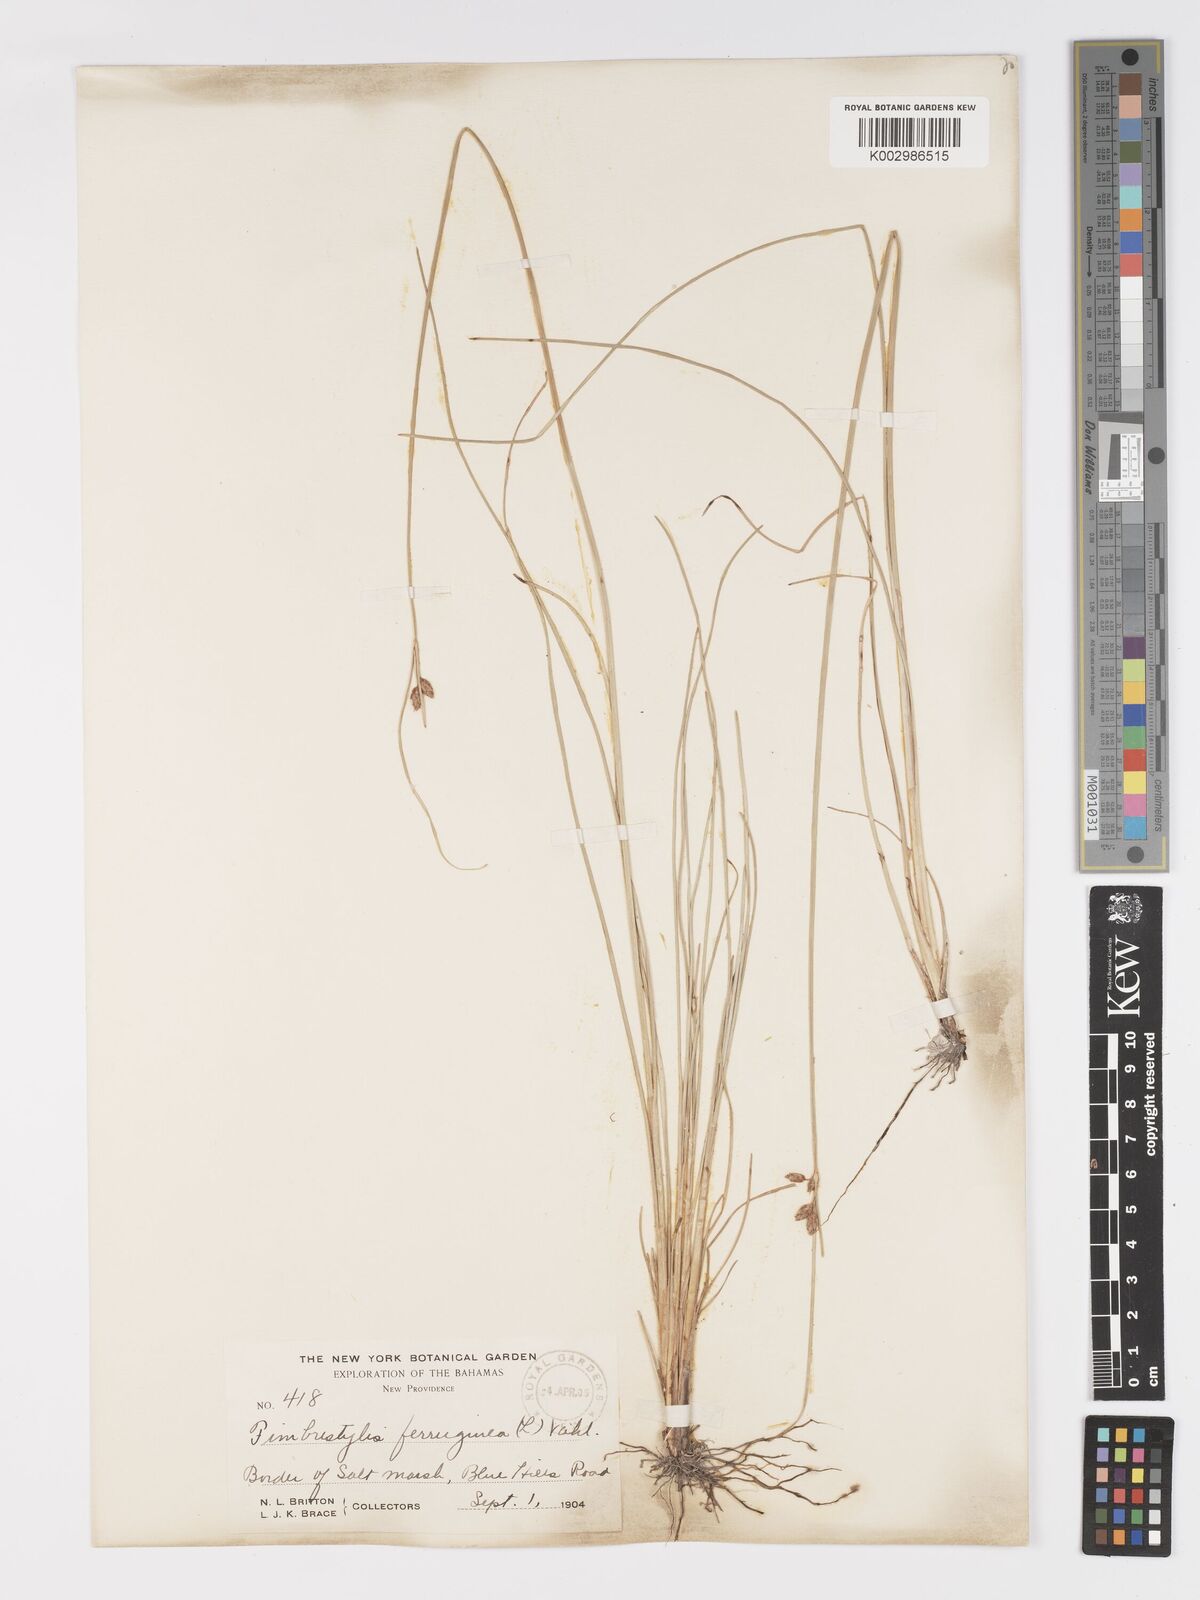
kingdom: Plantae
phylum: Tracheophyta
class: Liliopsida
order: Poales
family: Cyperaceae
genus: Fimbristylis
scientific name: Fimbristylis ferruginea
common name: West indian fimbry
